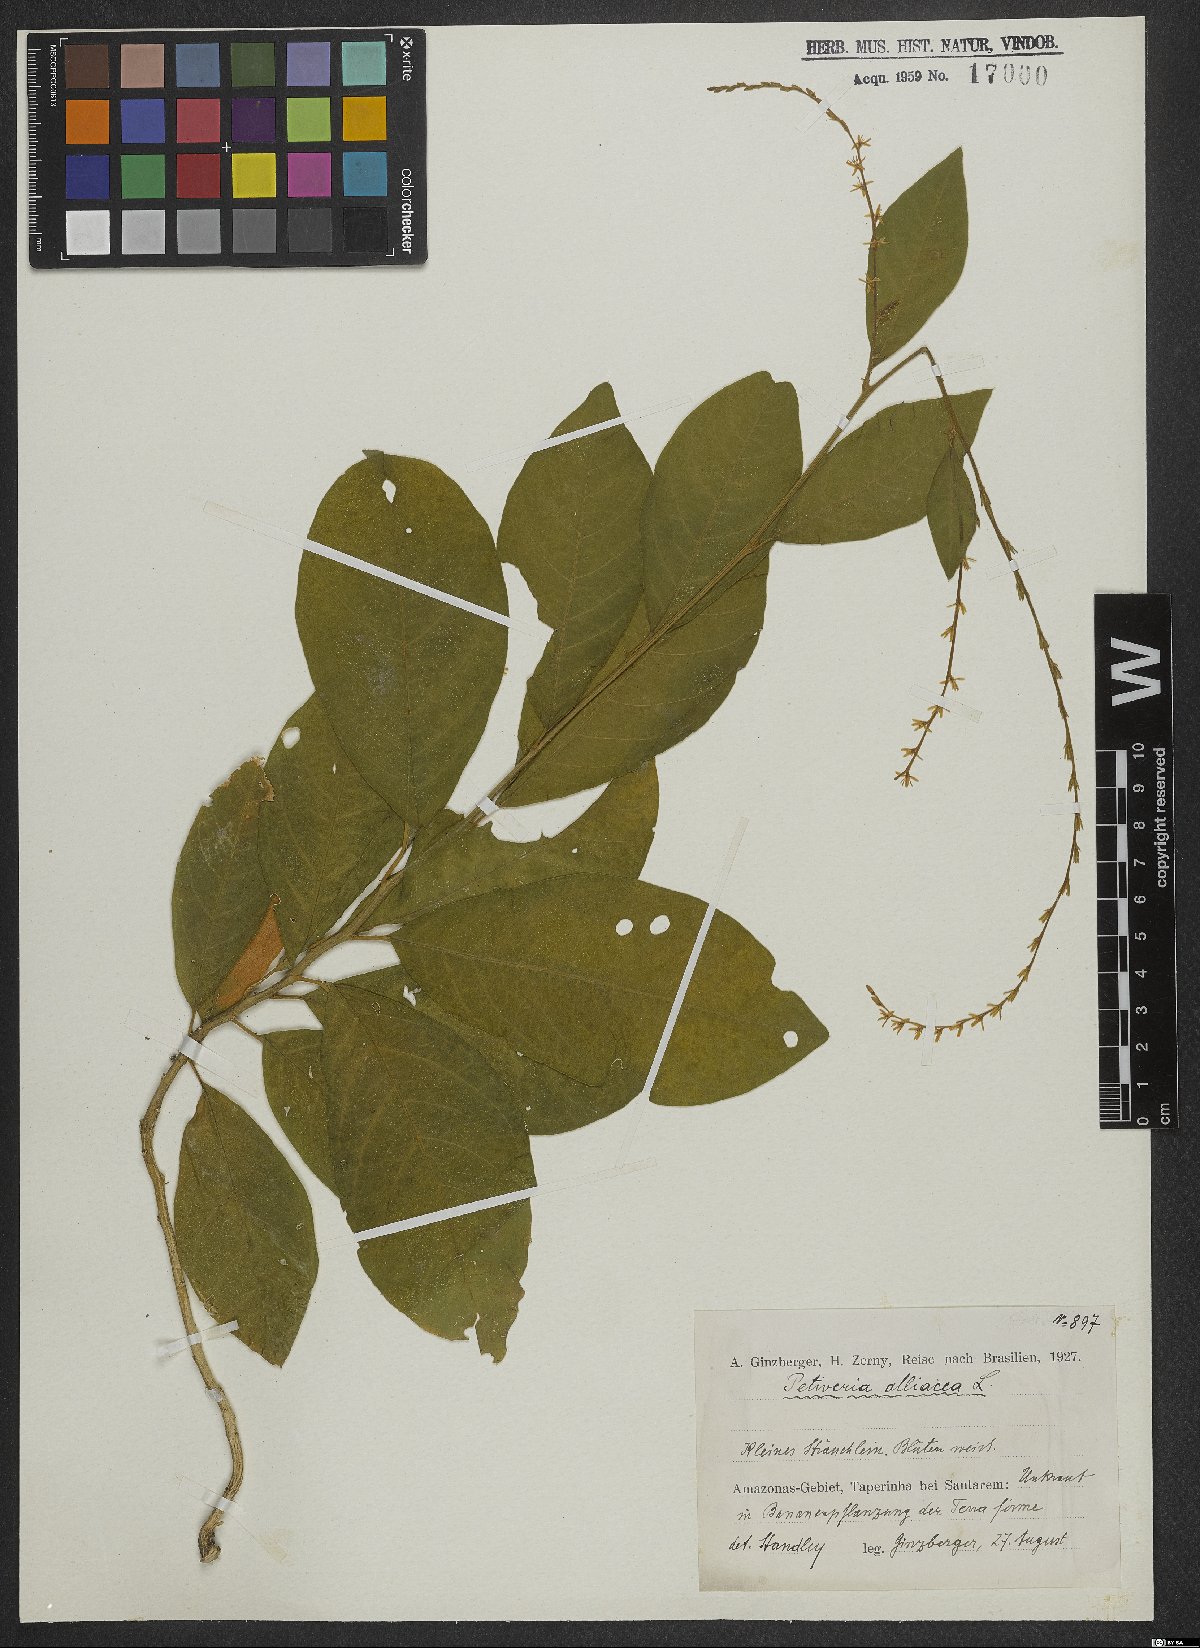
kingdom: Plantae
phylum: Tracheophyta
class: Magnoliopsida
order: Caryophyllales
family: Phytolaccaceae
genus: Petiveria
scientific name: Petiveria alliacea
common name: Garlicweed
